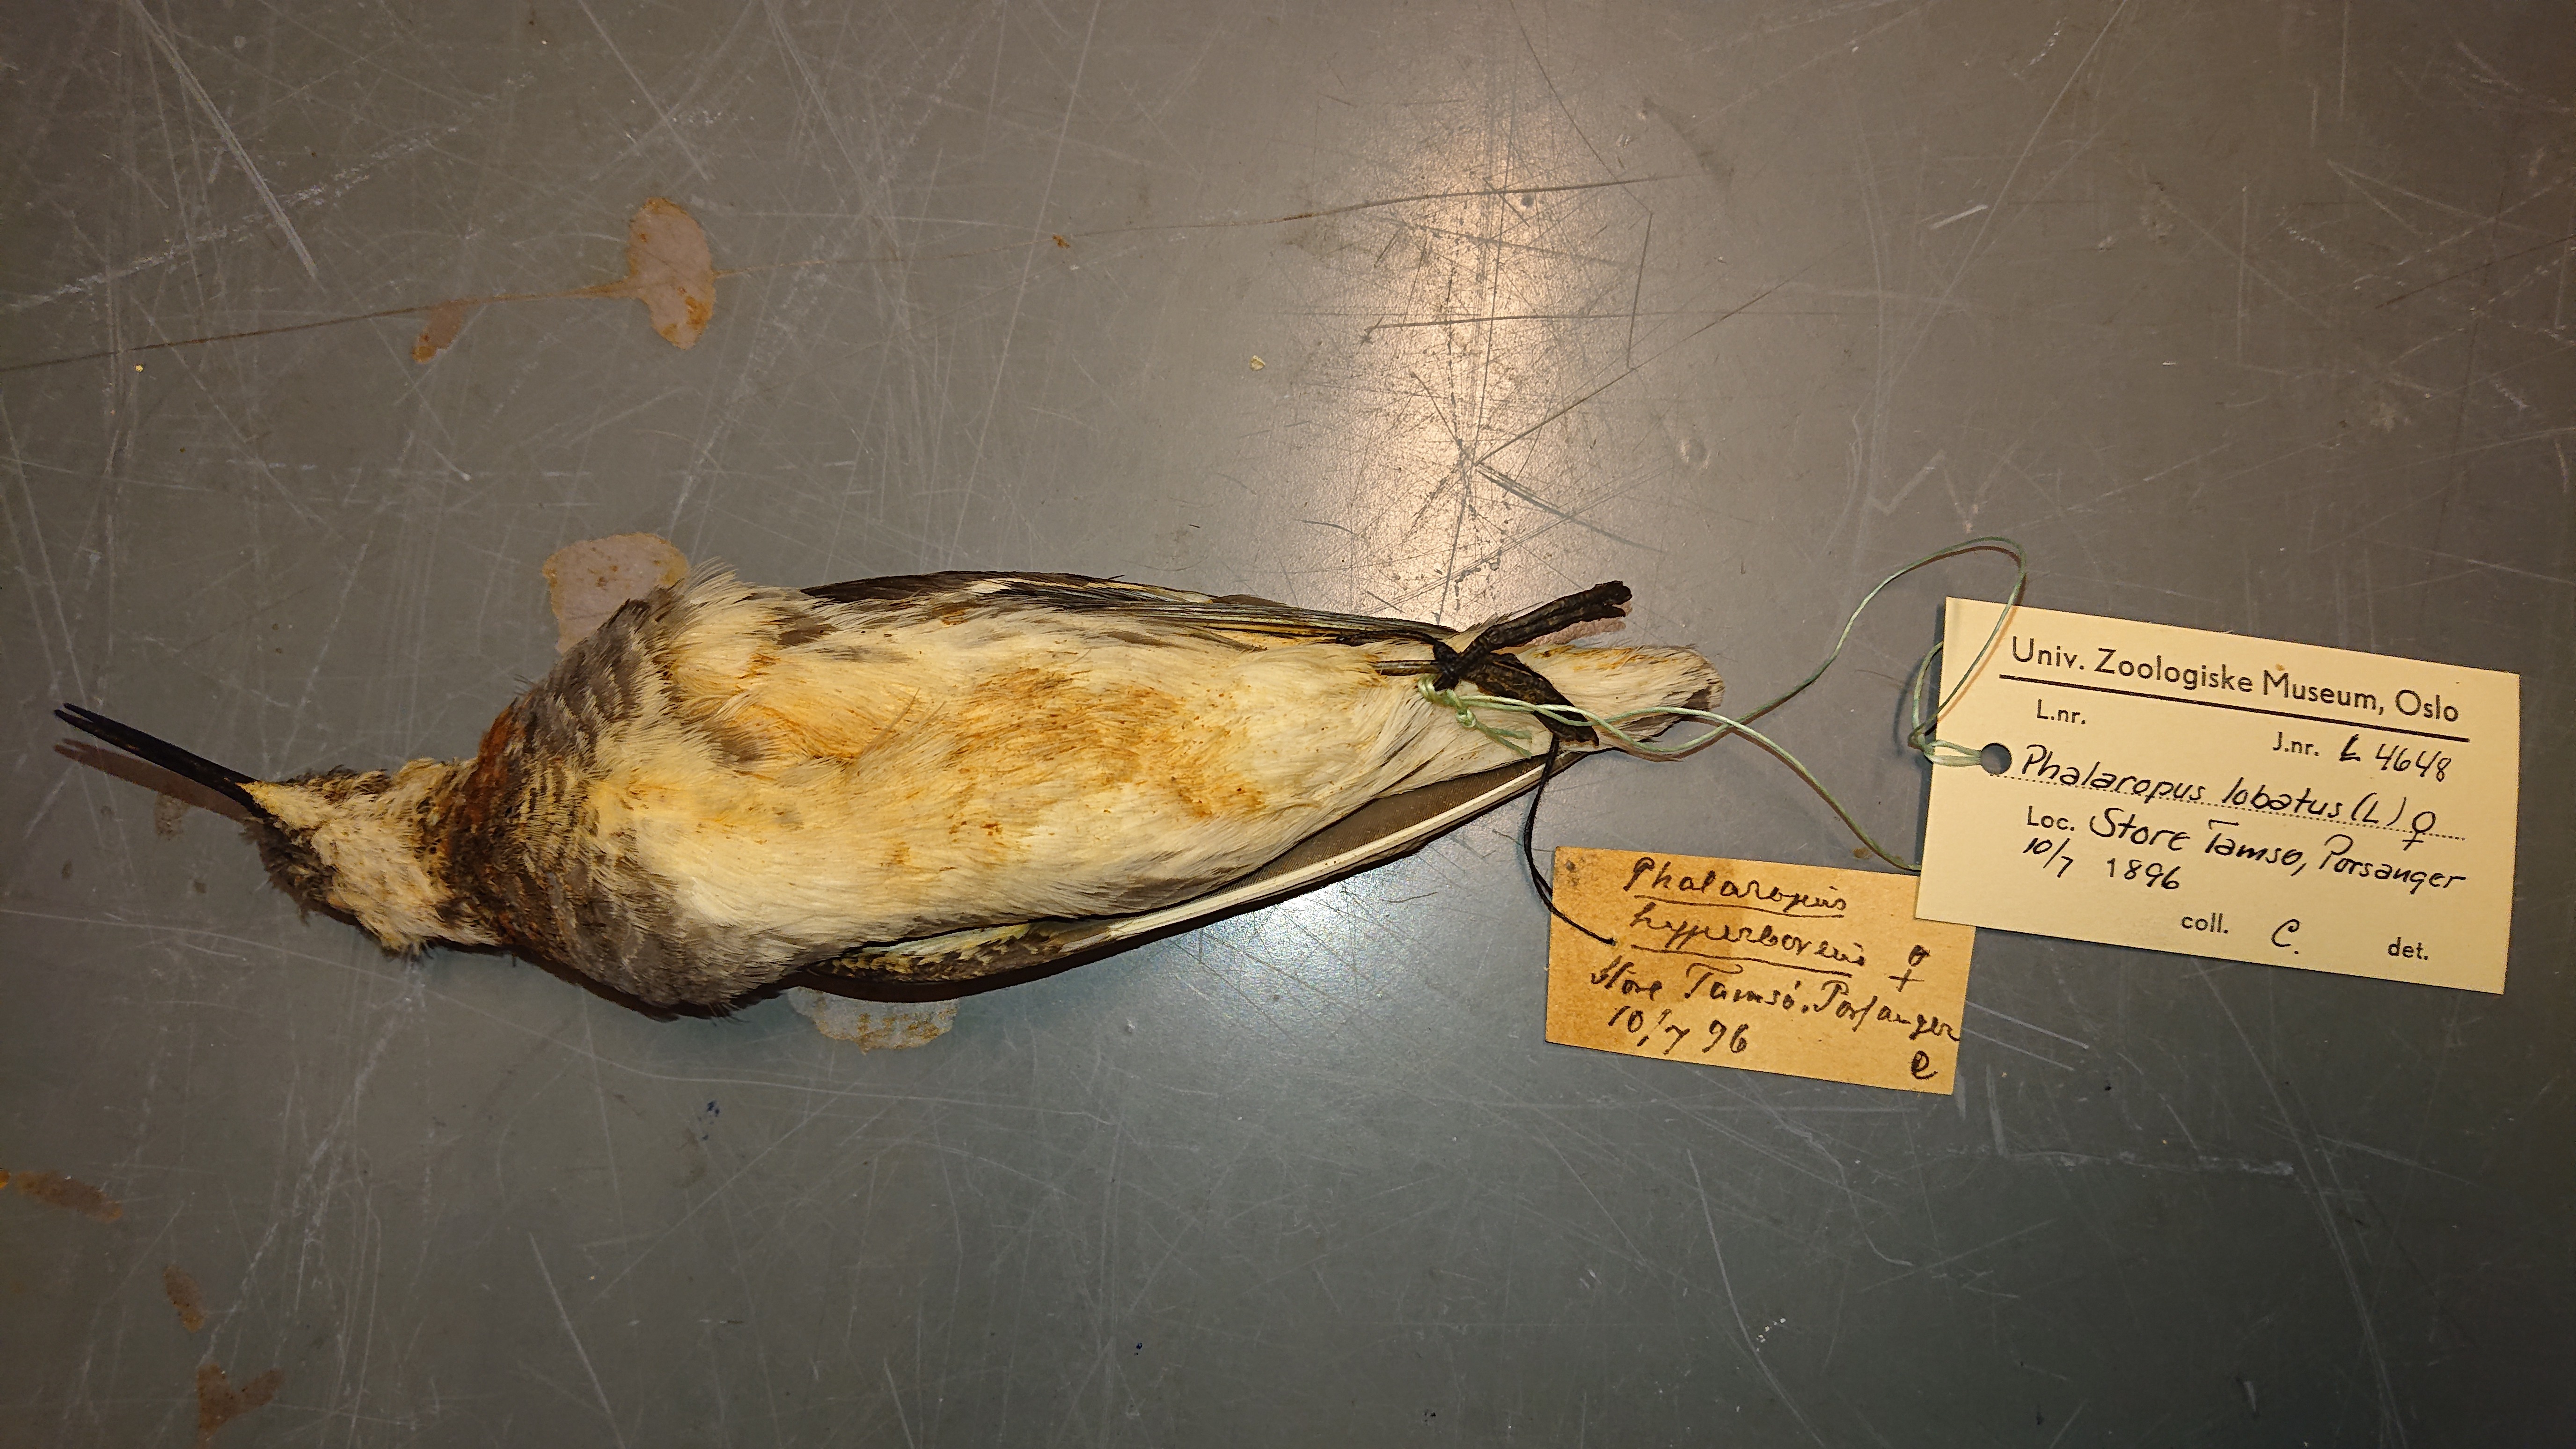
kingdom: Animalia
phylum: Chordata
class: Aves
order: Charadriiformes
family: Scolopacidae
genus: Phalaropus
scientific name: Phalaropus lobatus
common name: Red-necked phalarope
